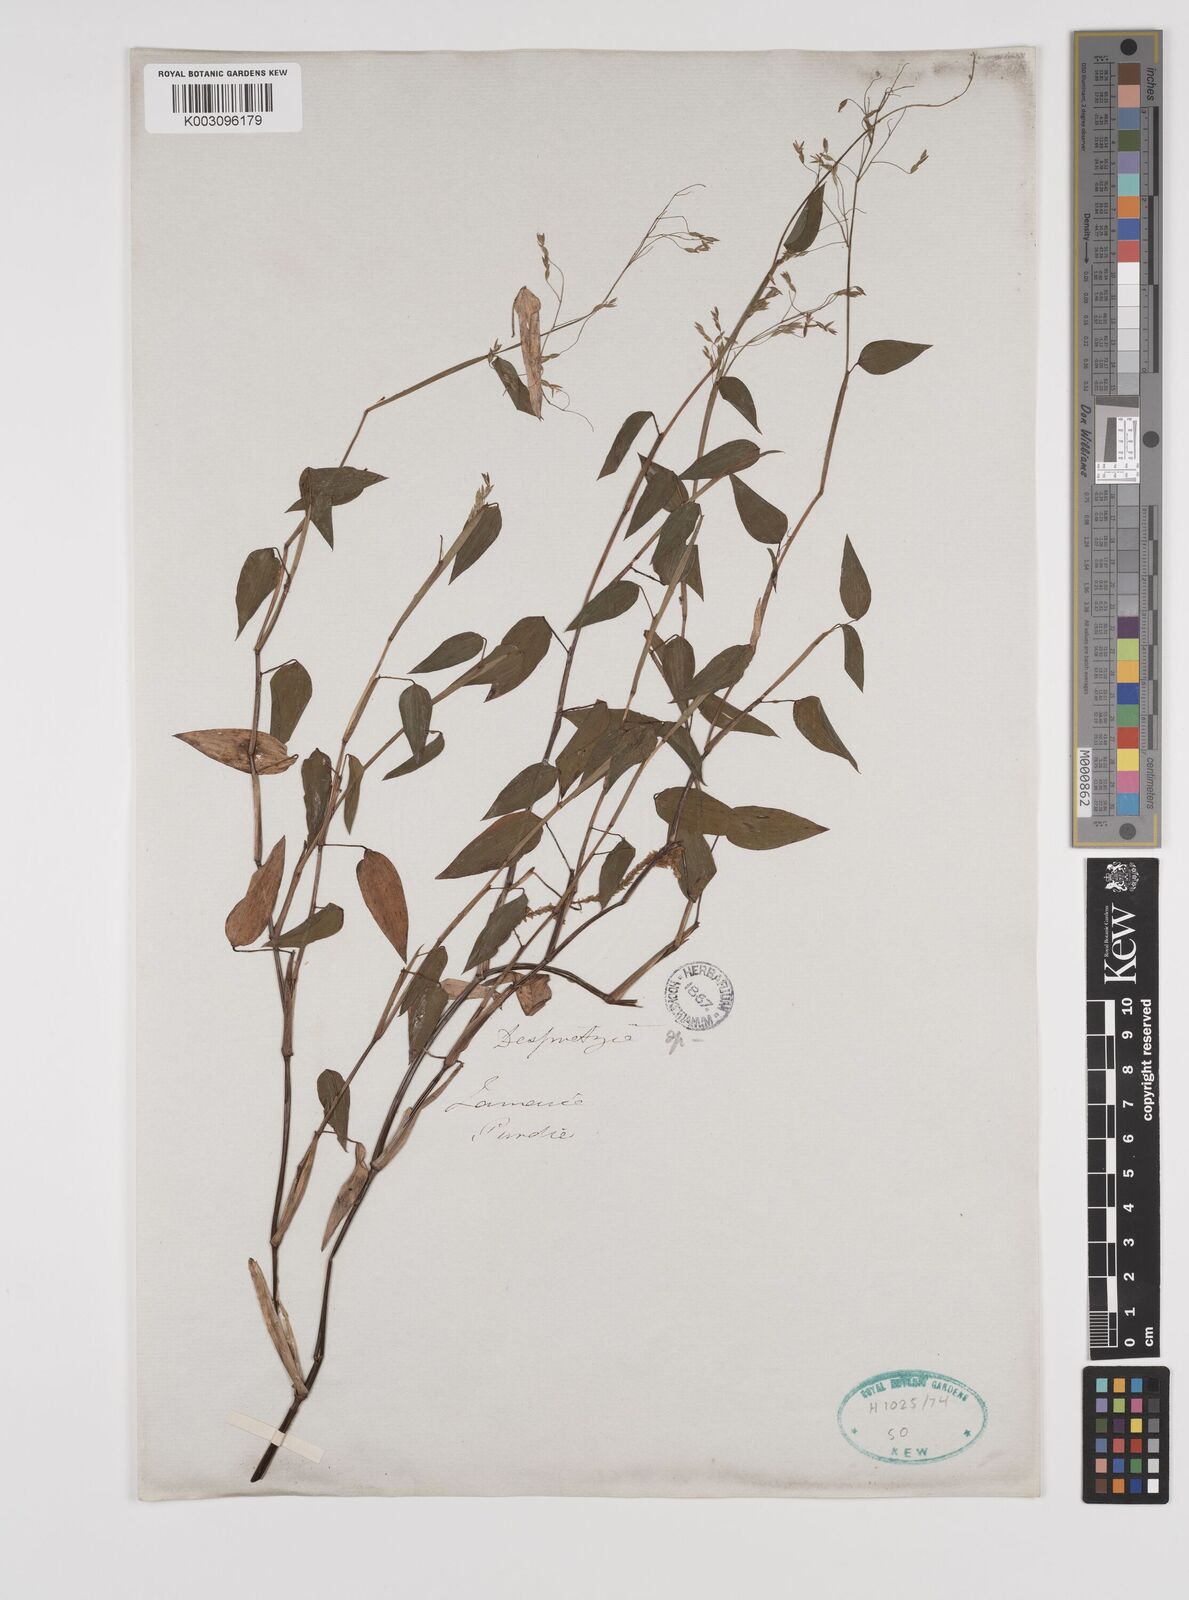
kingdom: Plantae
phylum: Tracheophyta
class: Liliopsida
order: Poales
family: Poaceae
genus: Zeugites
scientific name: Zeugites americanus
